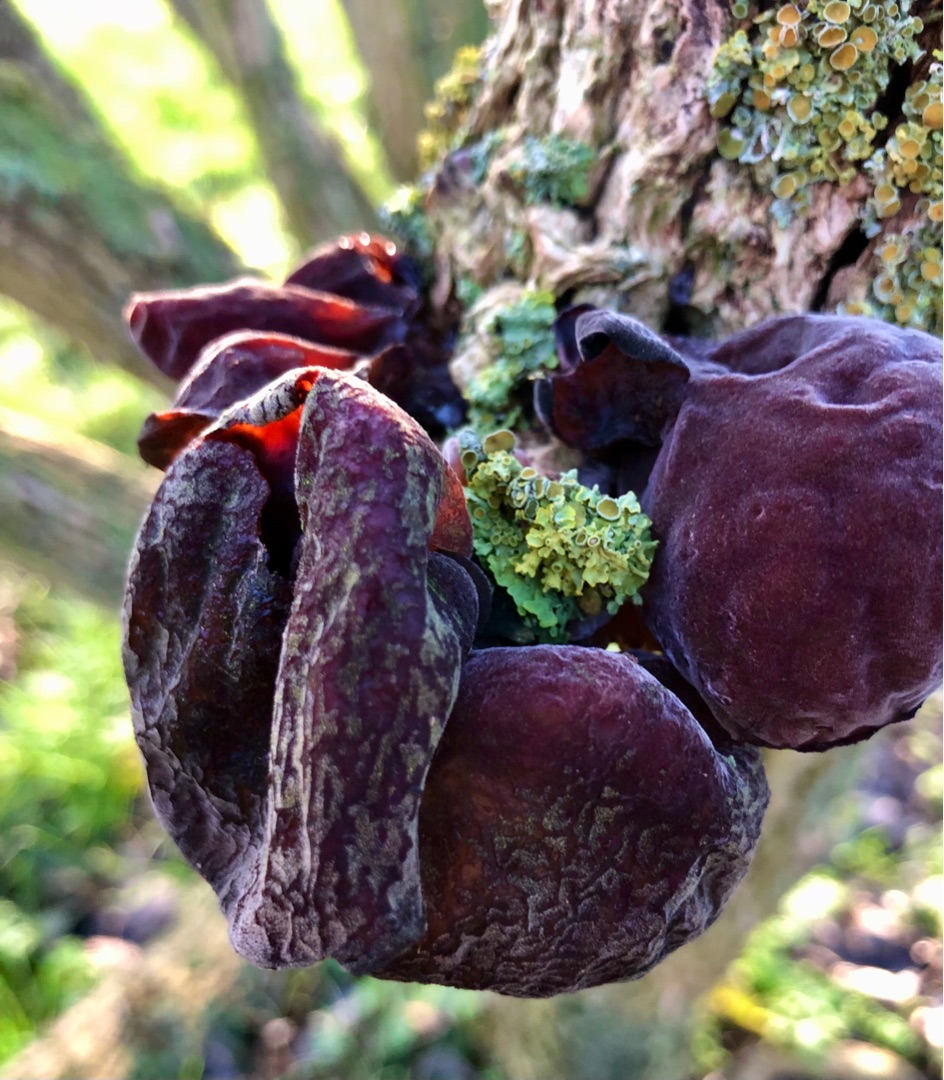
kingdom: Fungi
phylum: Basidiomycota
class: Agaricomycetes
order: Auriculariales
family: Auriculariaceae
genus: Auricularia
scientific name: Auricularia auricula-judae
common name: Almindelig judasøre
